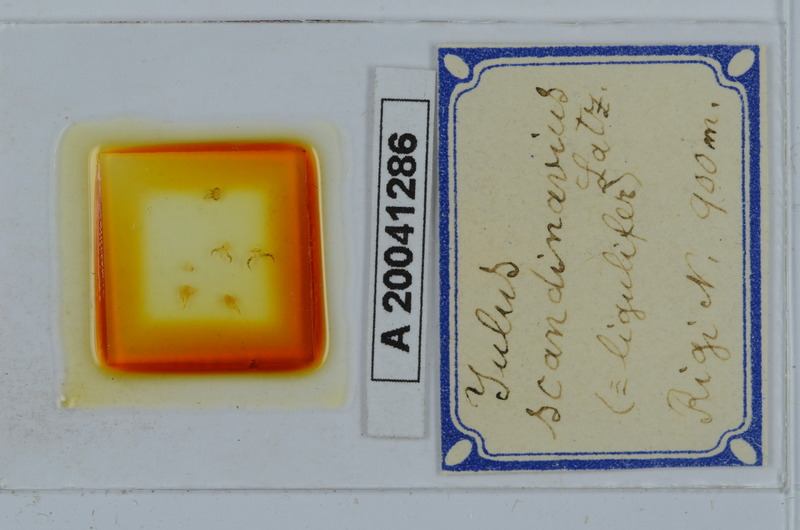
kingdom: Animalia
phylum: Arthropoda
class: Diplopoda
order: Julida
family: Julidae
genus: Julus
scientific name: Julus scandinavius
